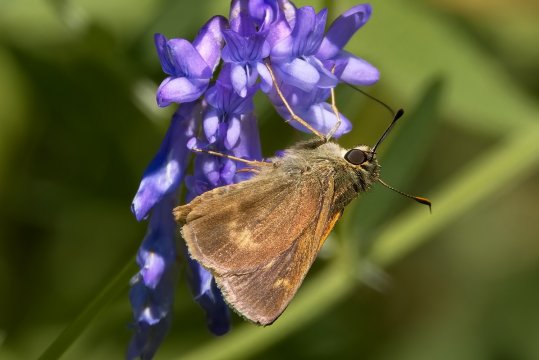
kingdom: Animalia
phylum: Arthropoda
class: Insecta
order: Lepidoptera
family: Hesperiidae
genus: Polites
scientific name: Polites egeremet
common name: Northern Broken-Dash
